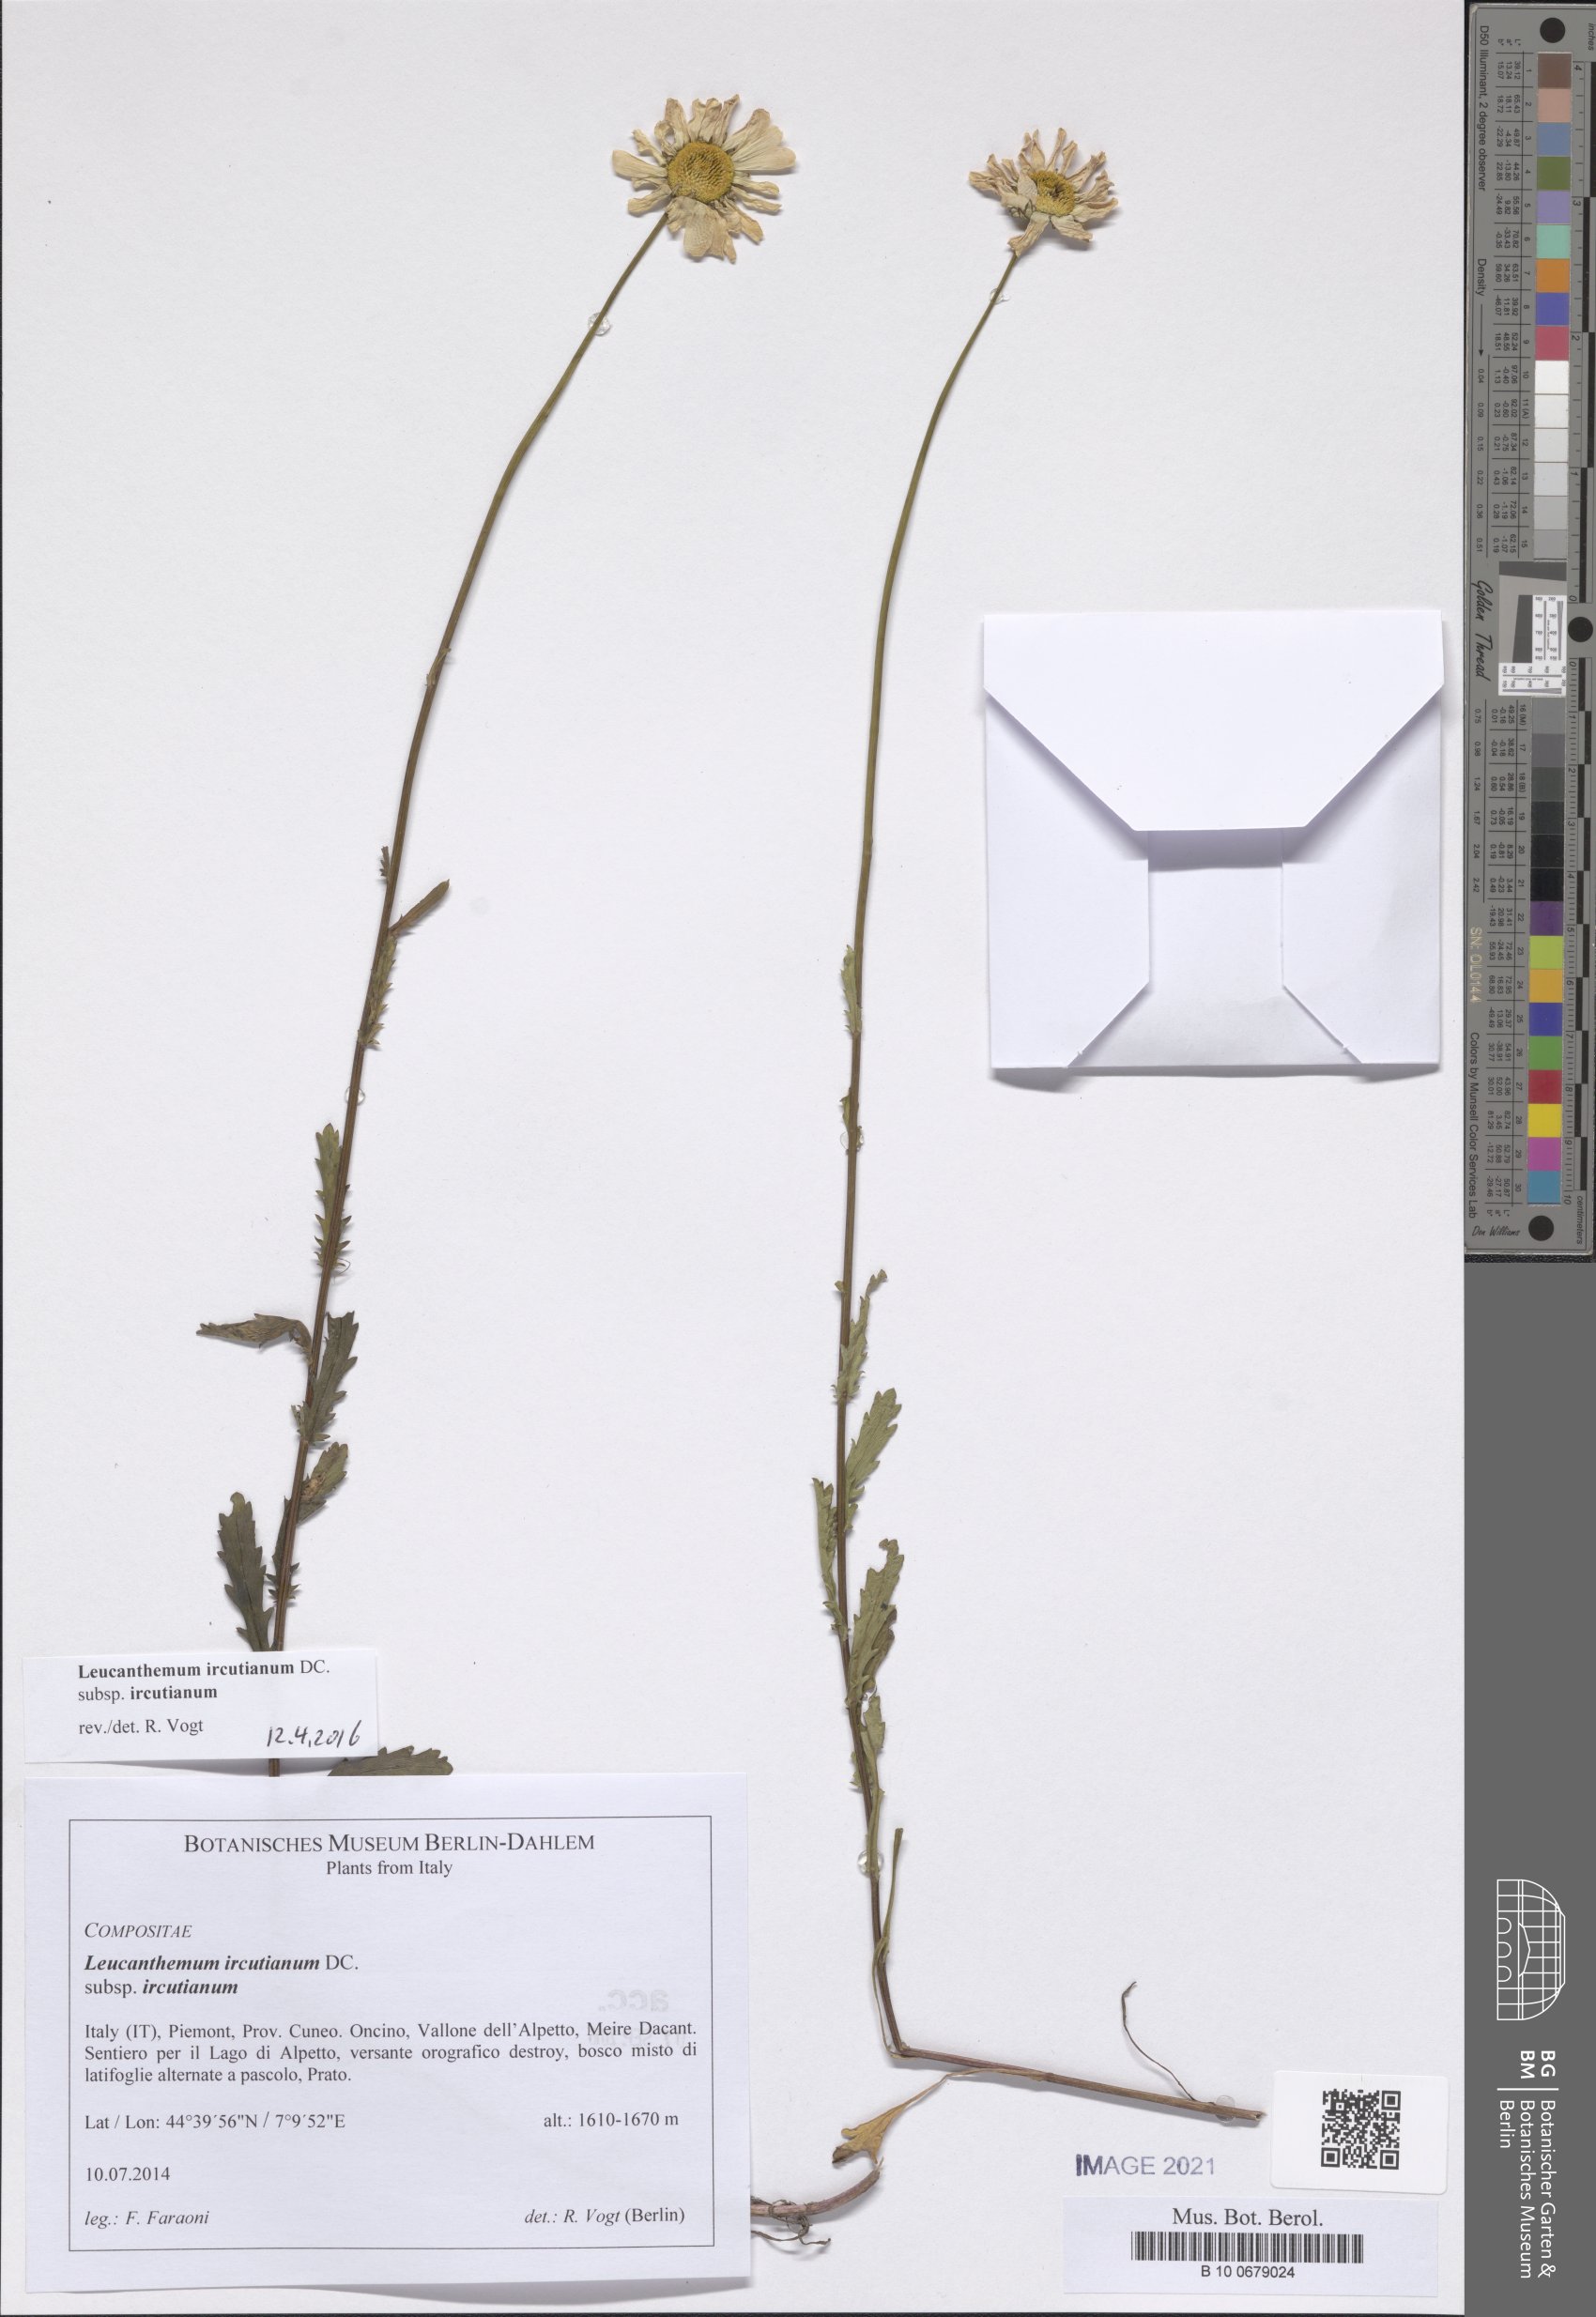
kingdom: Plantae
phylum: Tracheophyta
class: Magnoliopsida
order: Asterales
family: Asteraceae
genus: Leucanthemum
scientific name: Leucanthemum ircutianum
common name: Daisy
